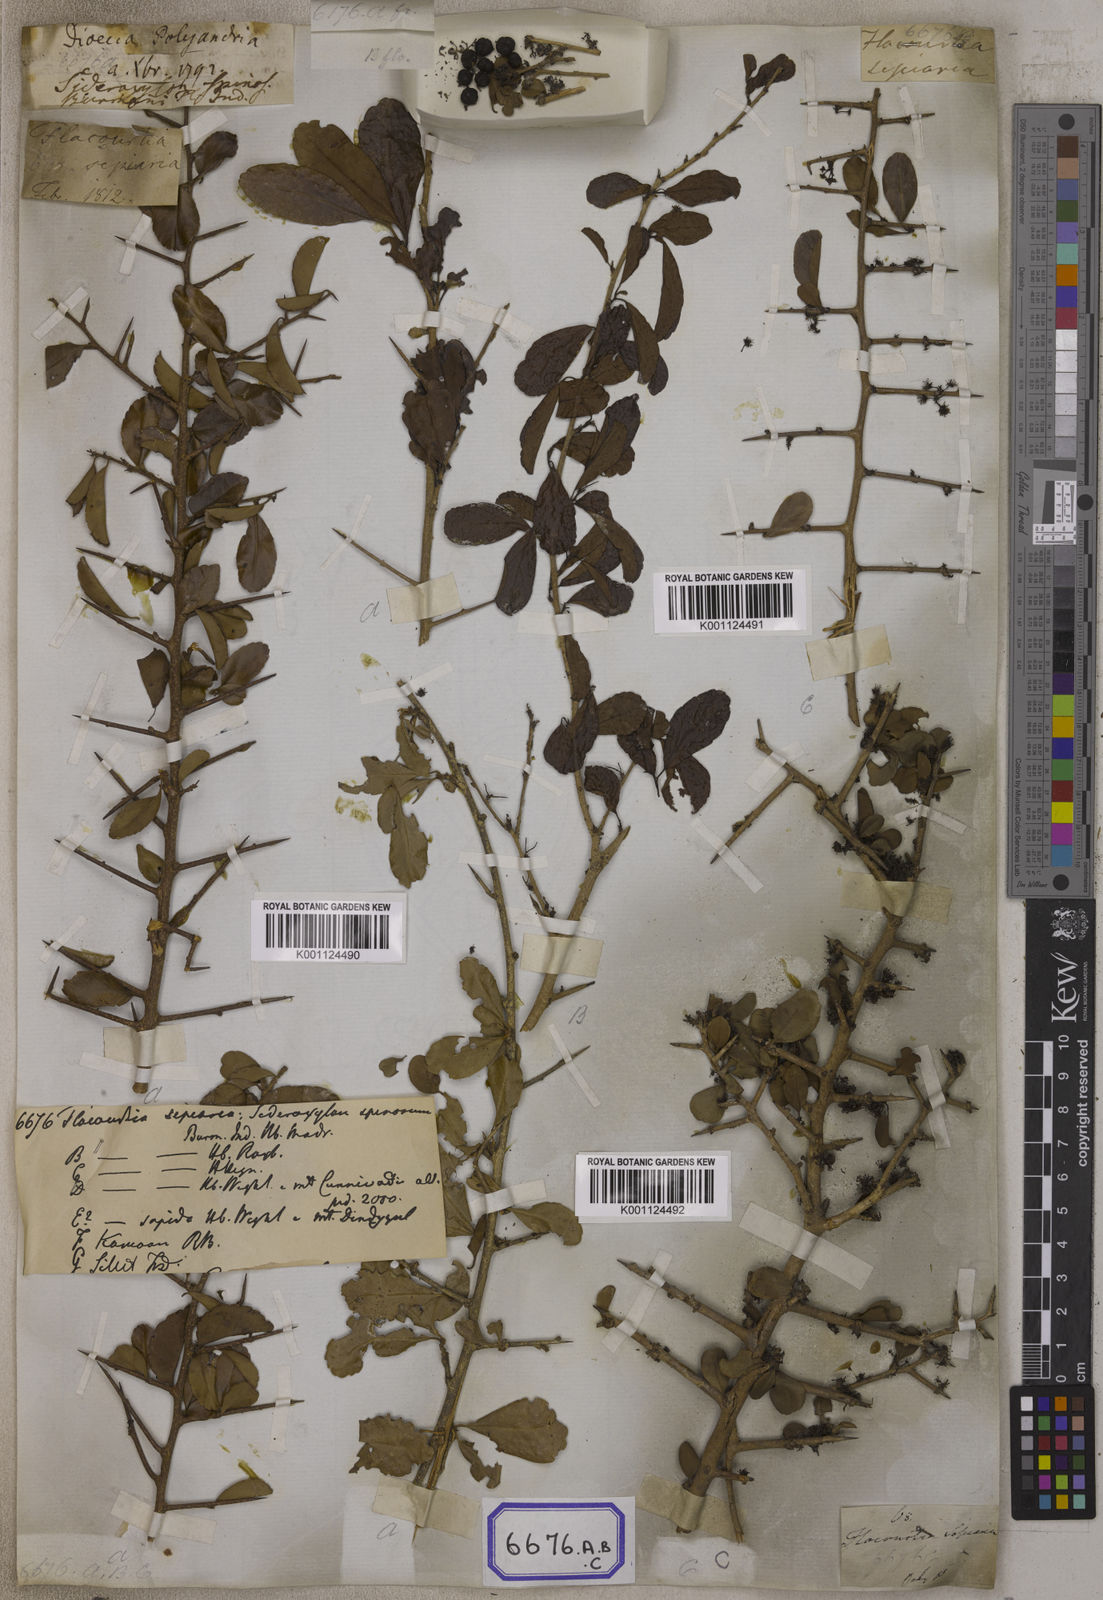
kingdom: Plantae
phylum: Tracheophyta
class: Magnoliopsida
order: Malpighiales
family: Salicaceae
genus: Flacourtia
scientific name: Flacourtia indica
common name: Governor's plum
